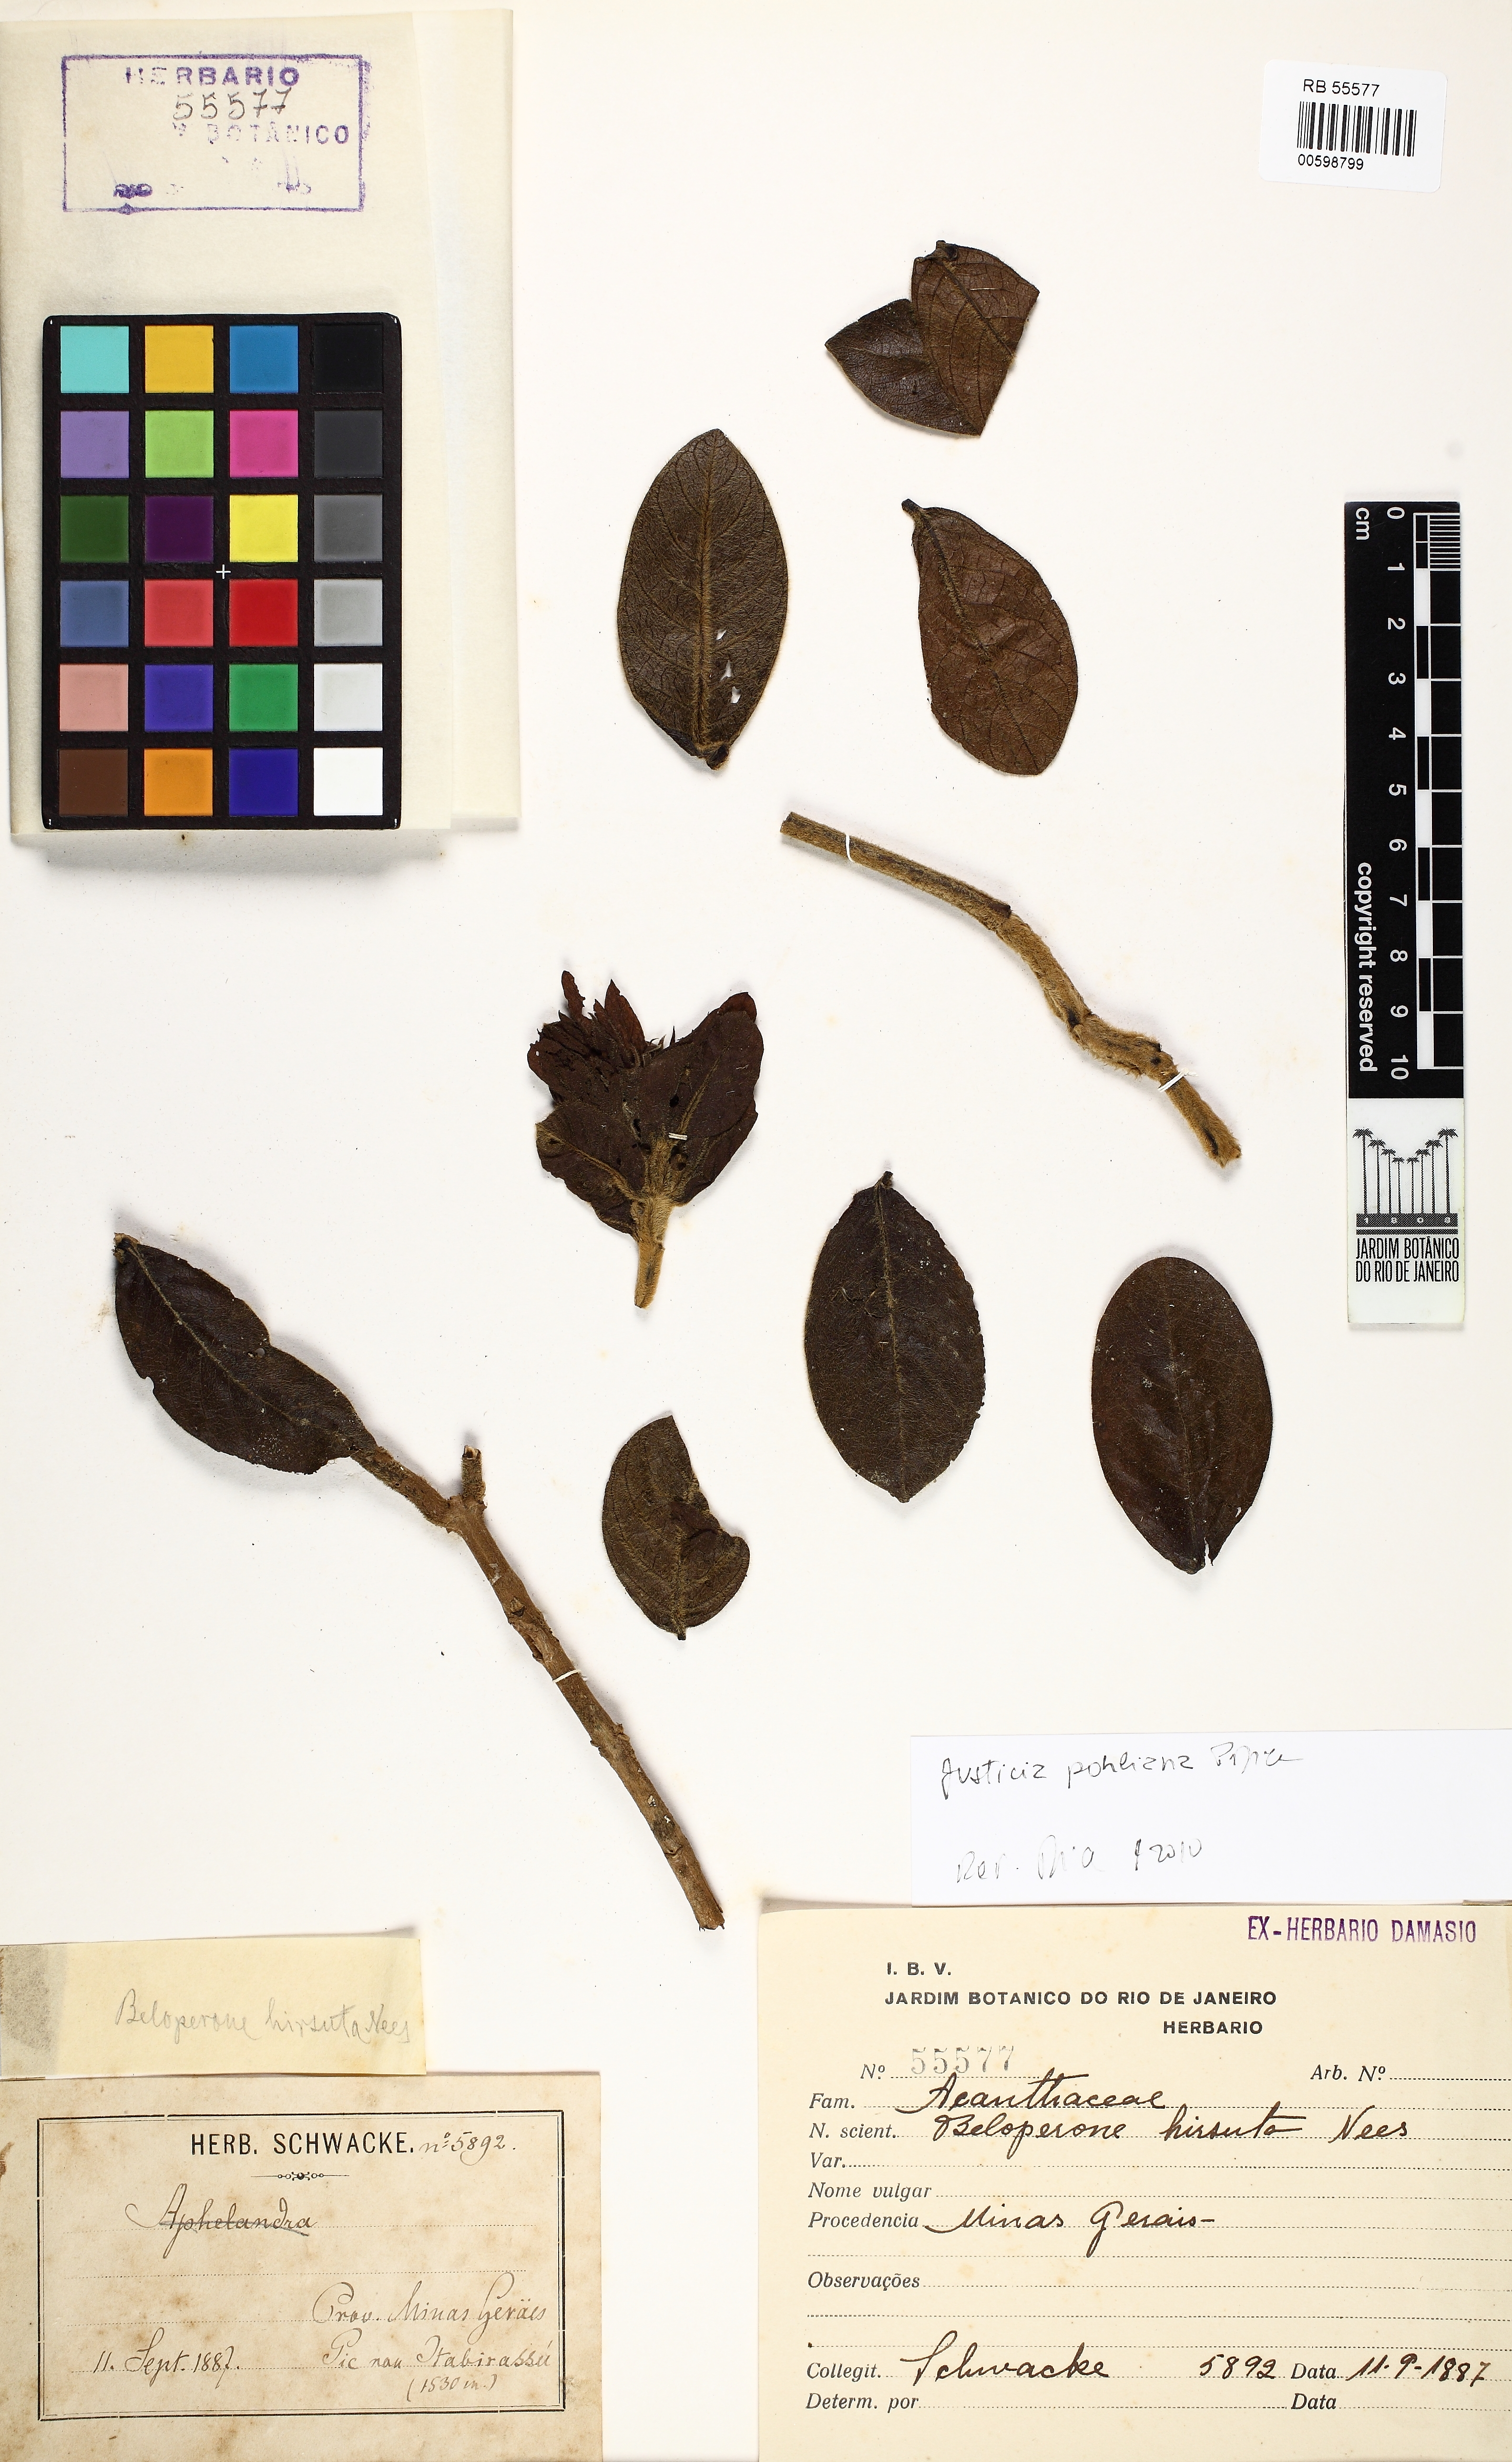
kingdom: Plantae
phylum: Tracheophyta
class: Magnoliopsida
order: Lamiales
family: Acanthaceae
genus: Justicia
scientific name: Justicia pohliana
